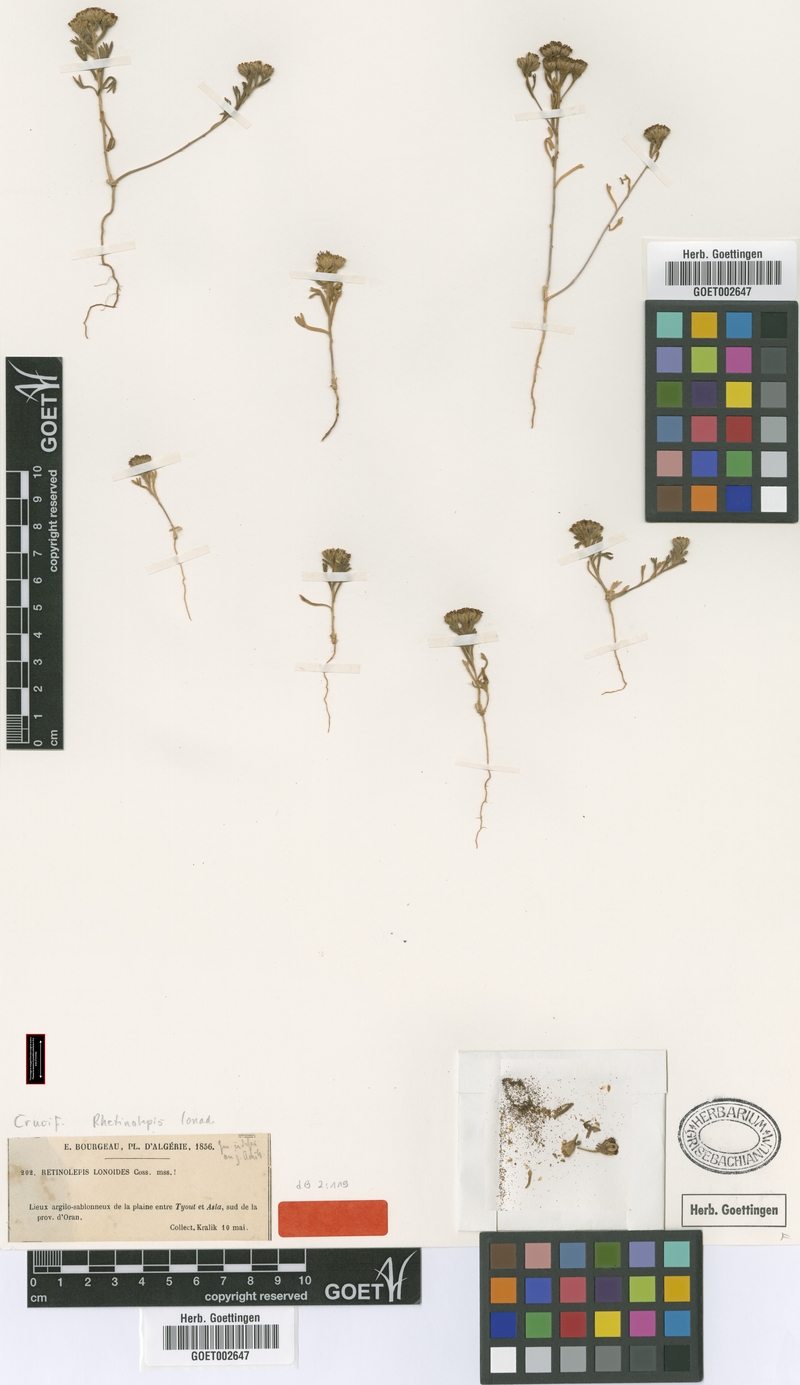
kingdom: Plantae
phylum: Tracheophyta
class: Magnoliopsida
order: Asterales
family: Asteraceae
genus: Rhetinolepis
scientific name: Rhetinolepis lonadioides
